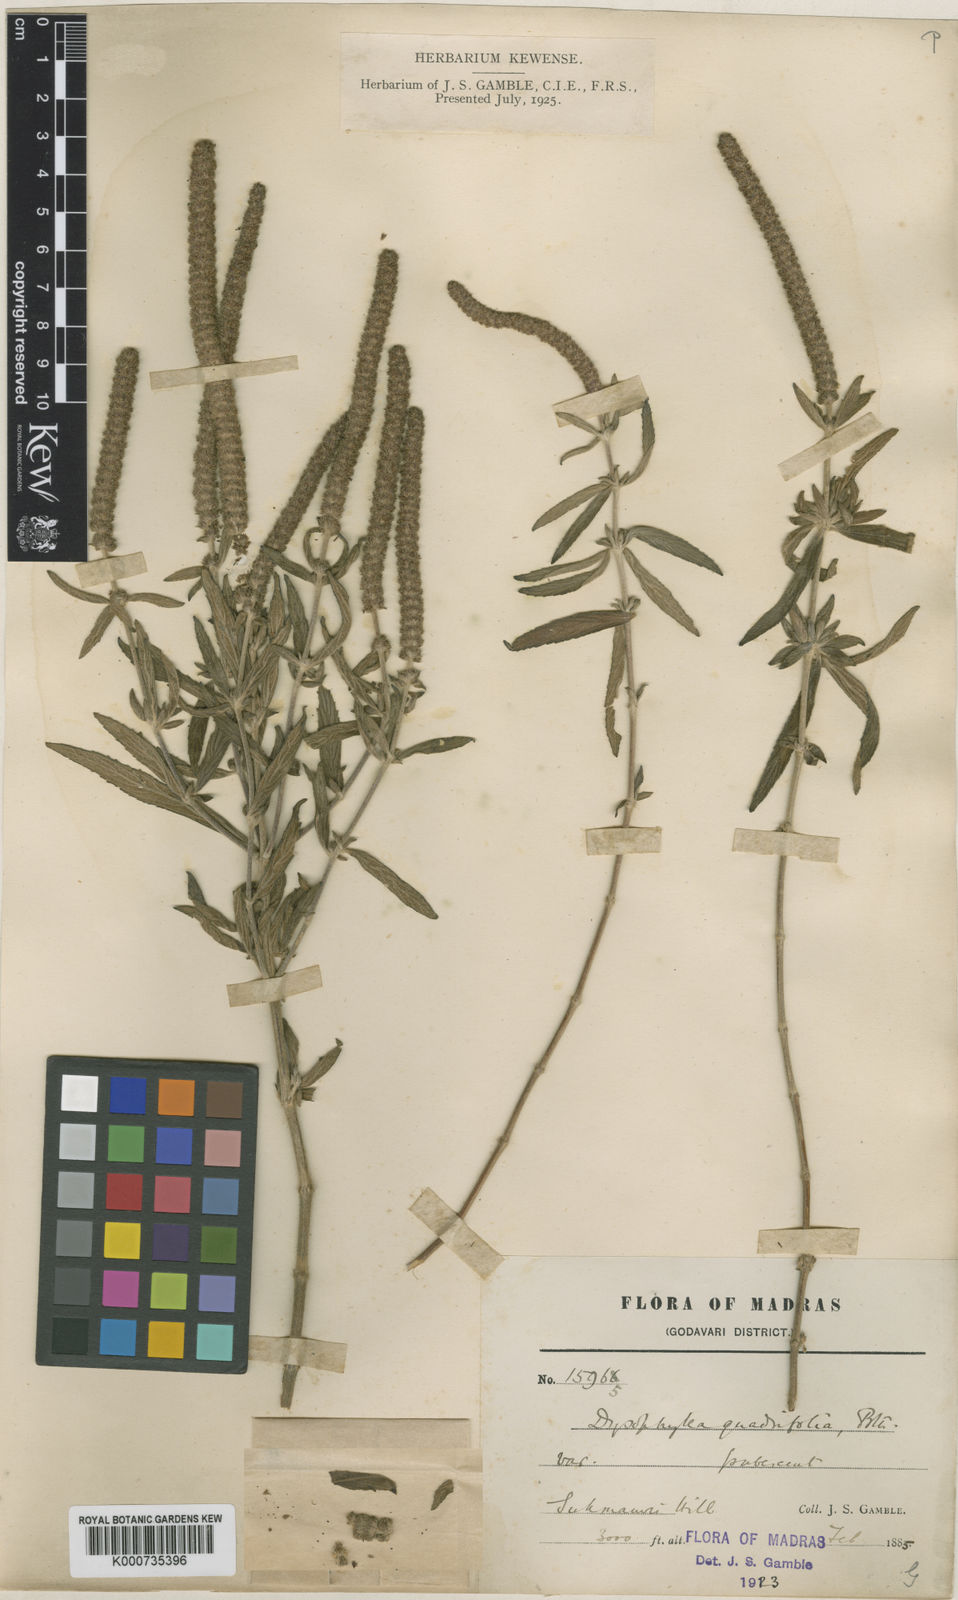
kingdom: Plantae
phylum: Tracheophyta
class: Magnoliopsida
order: Lamiales
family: Lamiaceae
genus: Pogostemon
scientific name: Pogostemon quadrifolius
